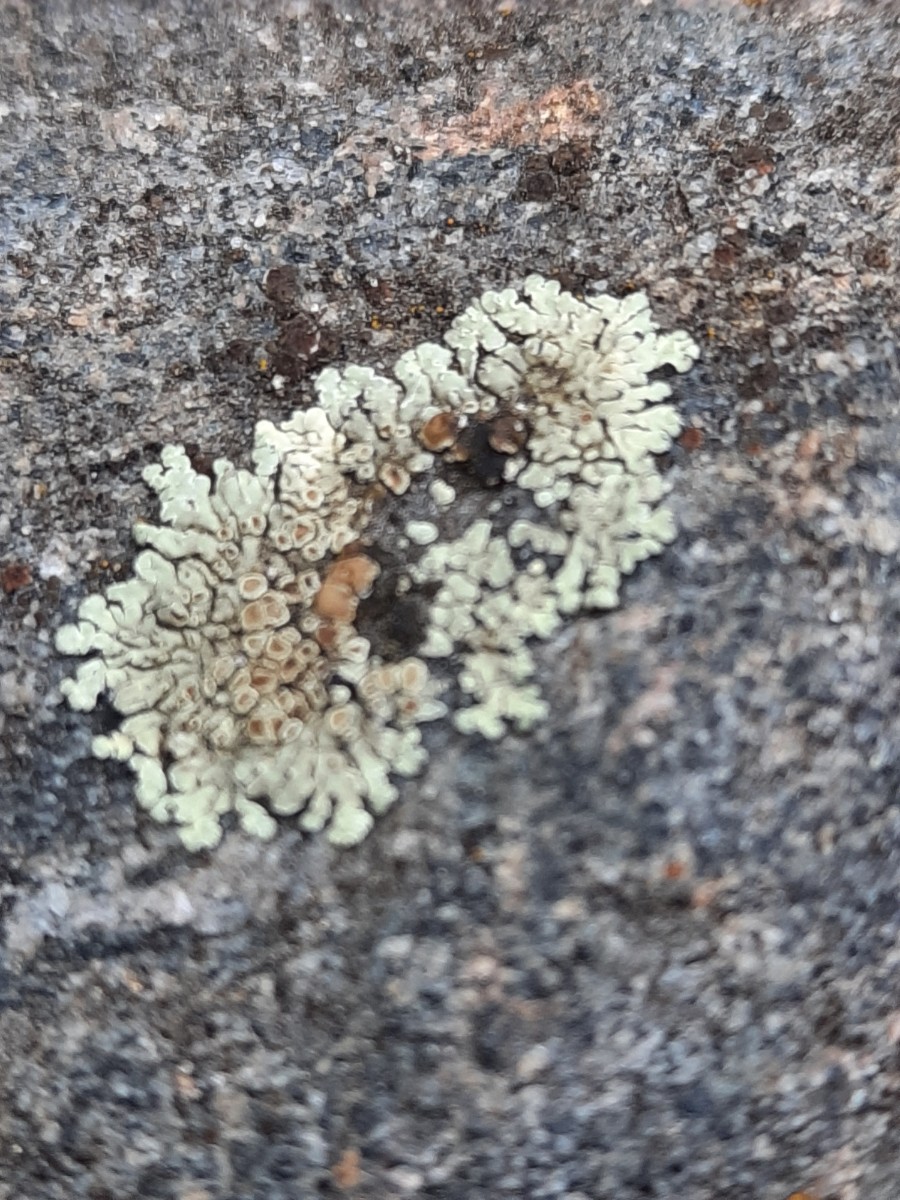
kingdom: Fungi
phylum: Ascomycota
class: Lecanoromycetes
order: Lecanorales
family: Lecanoraceae
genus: Protoparmeliopsis
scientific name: Protoparmeliopsis muralis
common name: randfliget kantskivelav
